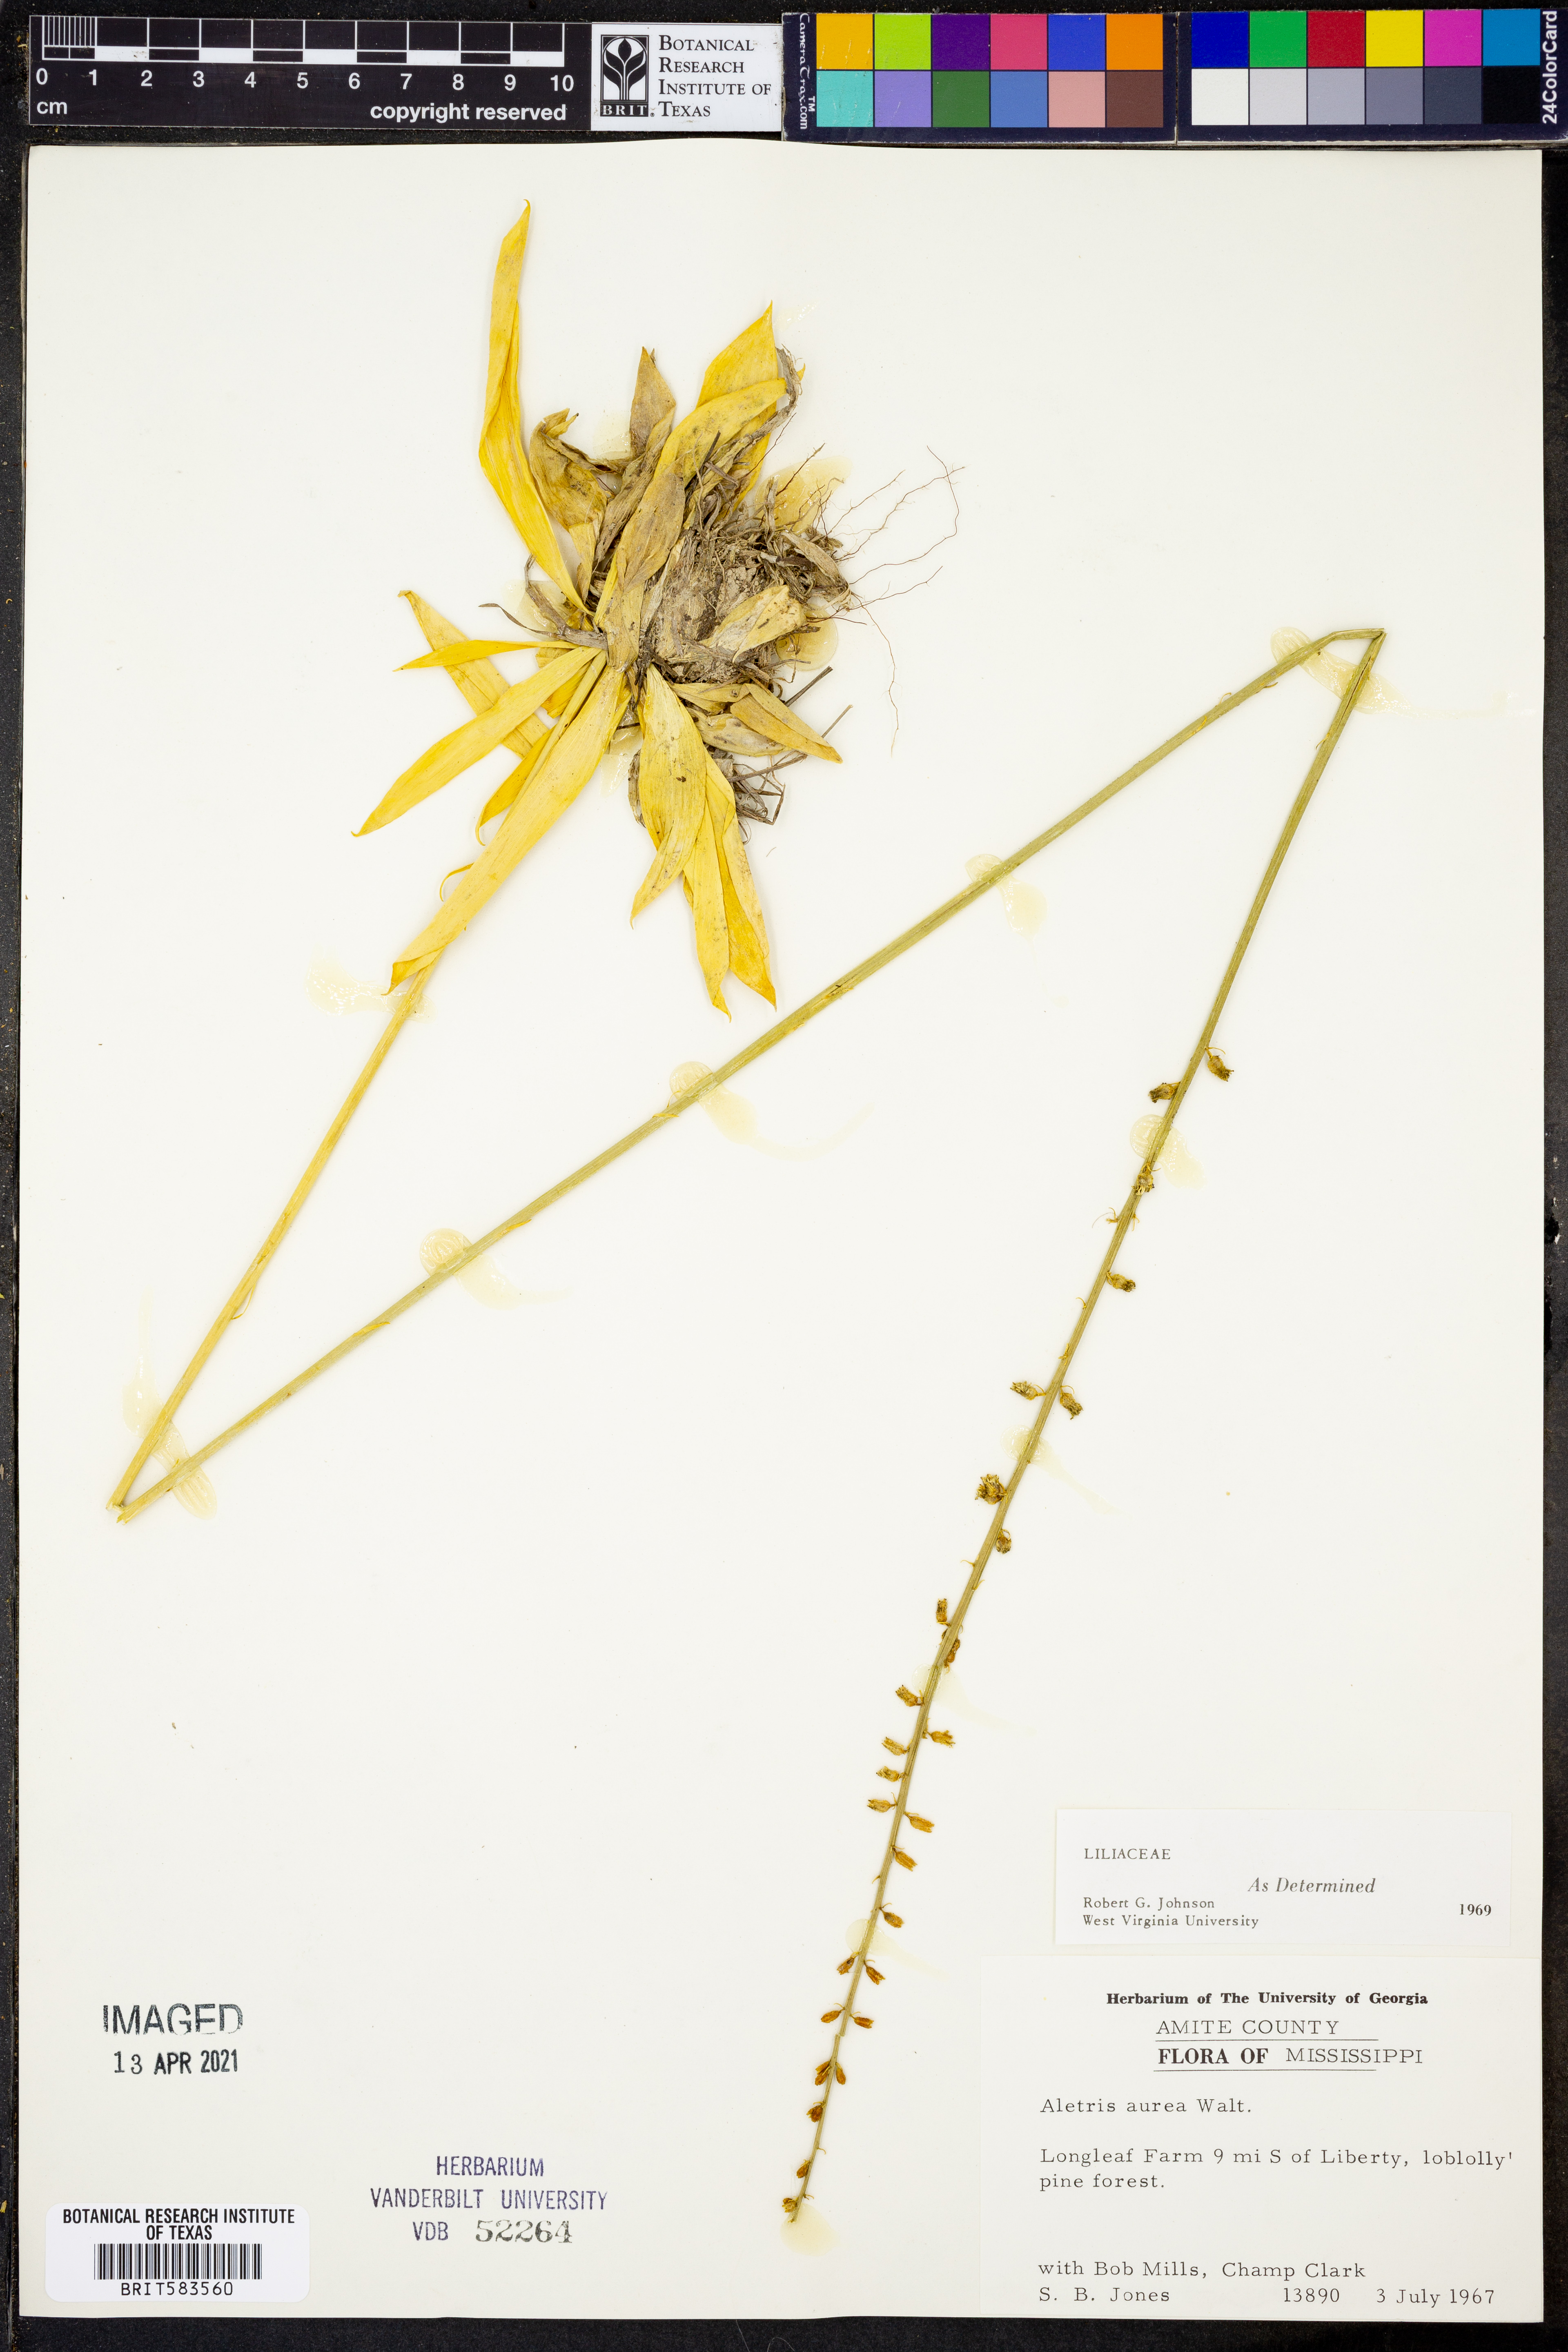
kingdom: Plantae
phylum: Tracheophyta
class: Liliopsida
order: Dioscoreales
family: Nartheciaceae
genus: Aletris
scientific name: Aletris aurea
